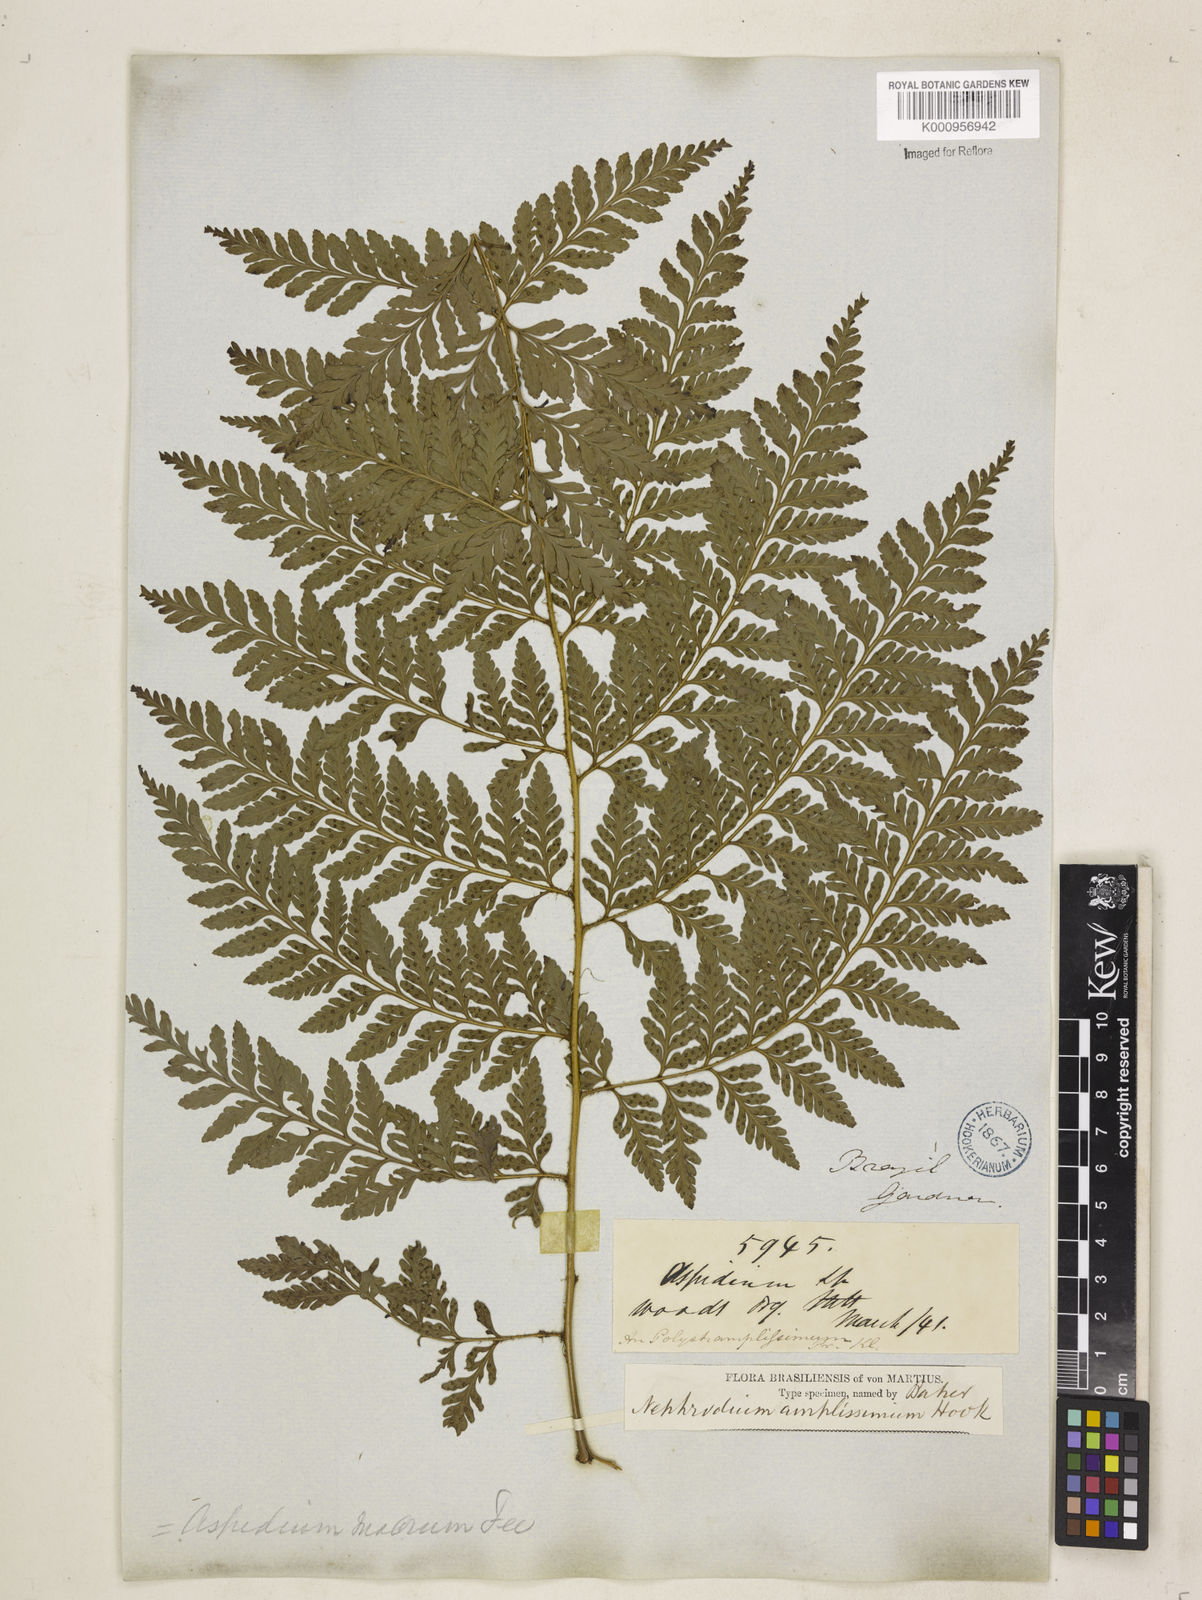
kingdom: Plantae
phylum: Tracheophyta
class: Polypodiopsida
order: Polypodiales
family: Dryopteridaceae
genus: Lastreopsis
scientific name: Lastreopsis amplissima
